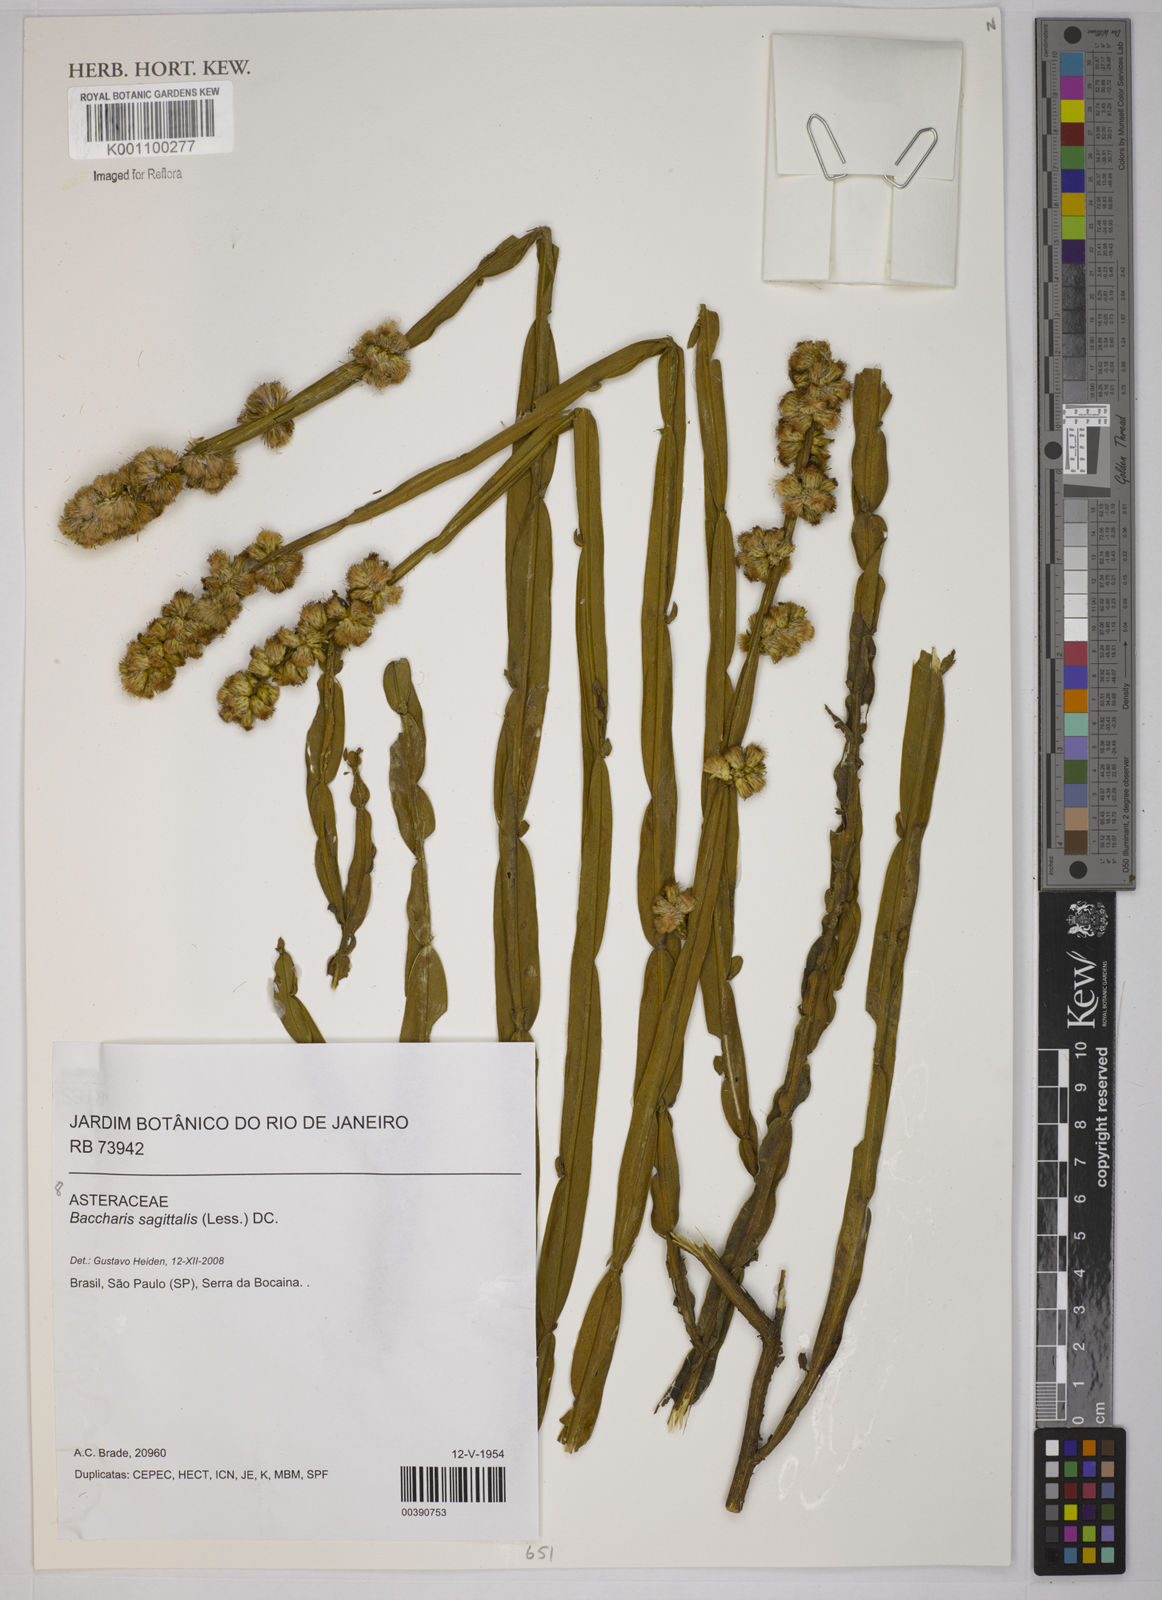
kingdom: Plantae
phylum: Tracheophyta
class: Magnoliopsida
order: Asterales
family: Asteraceae
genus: Baccharis
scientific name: Baccharis sagittalis
